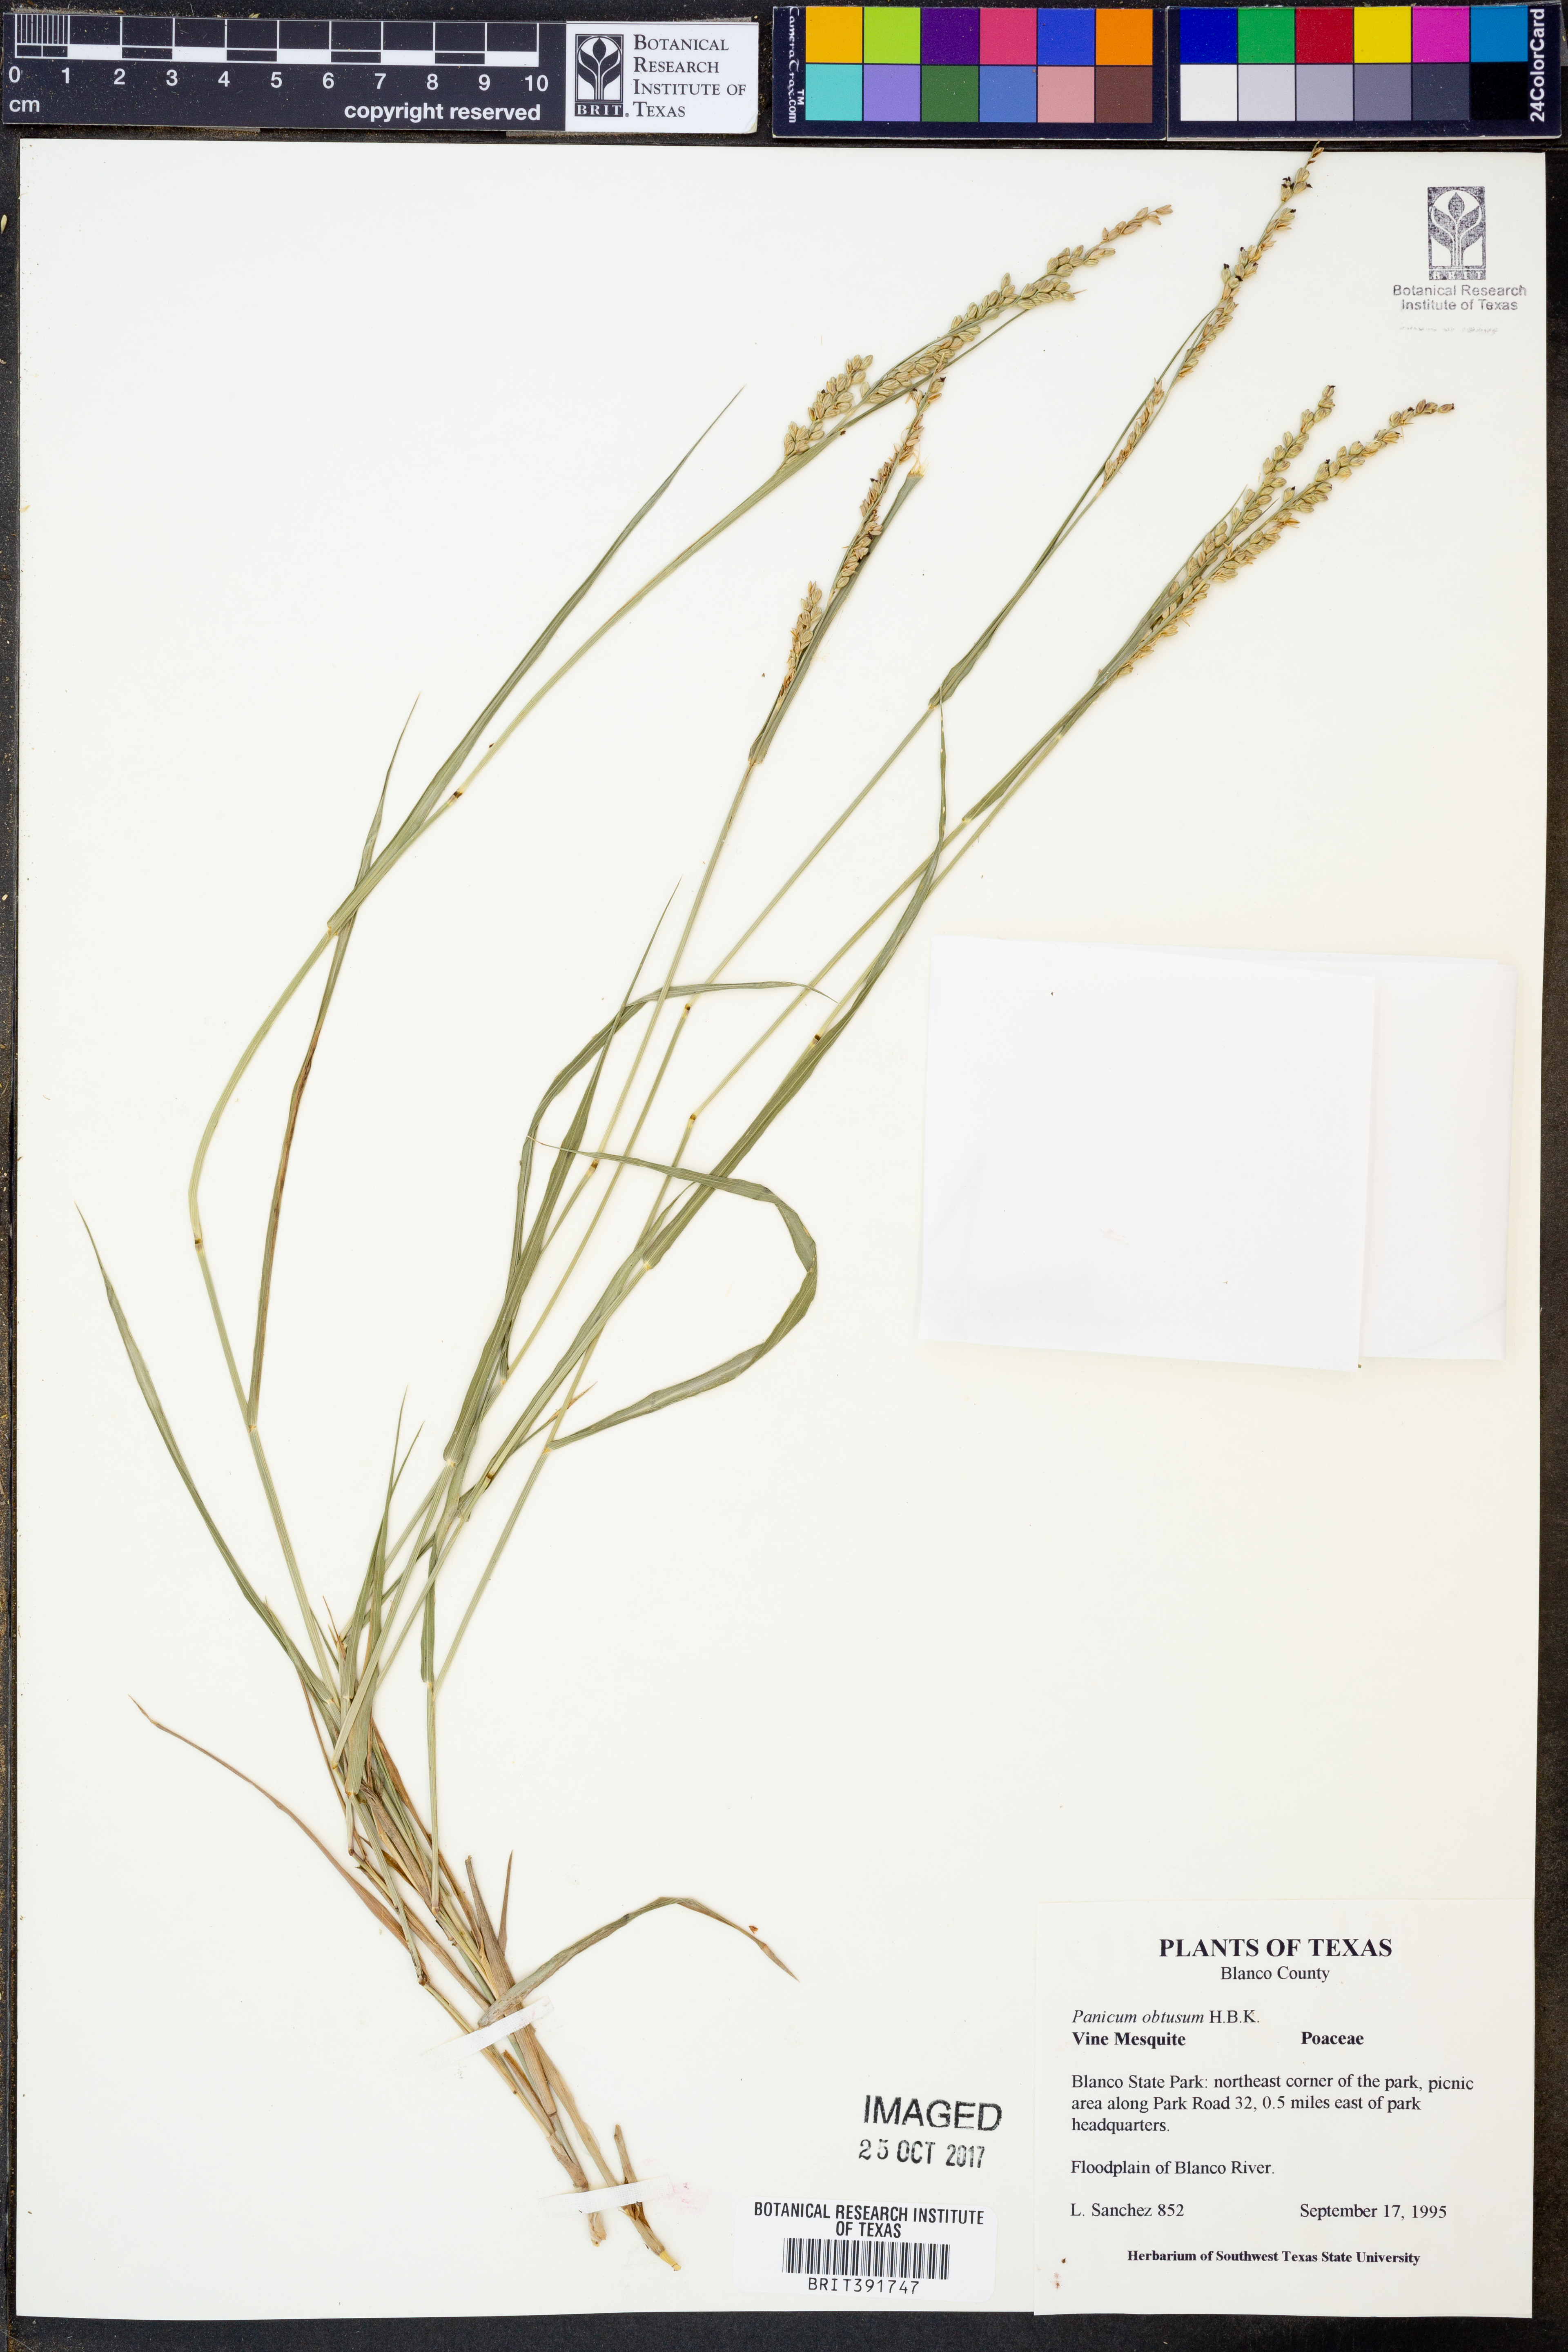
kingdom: Plantae
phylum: Tracheophyta
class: Liliopsida
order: Poales
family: Poaceae
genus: Hopia
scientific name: Hopia obtusa
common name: Vine-mesquite
